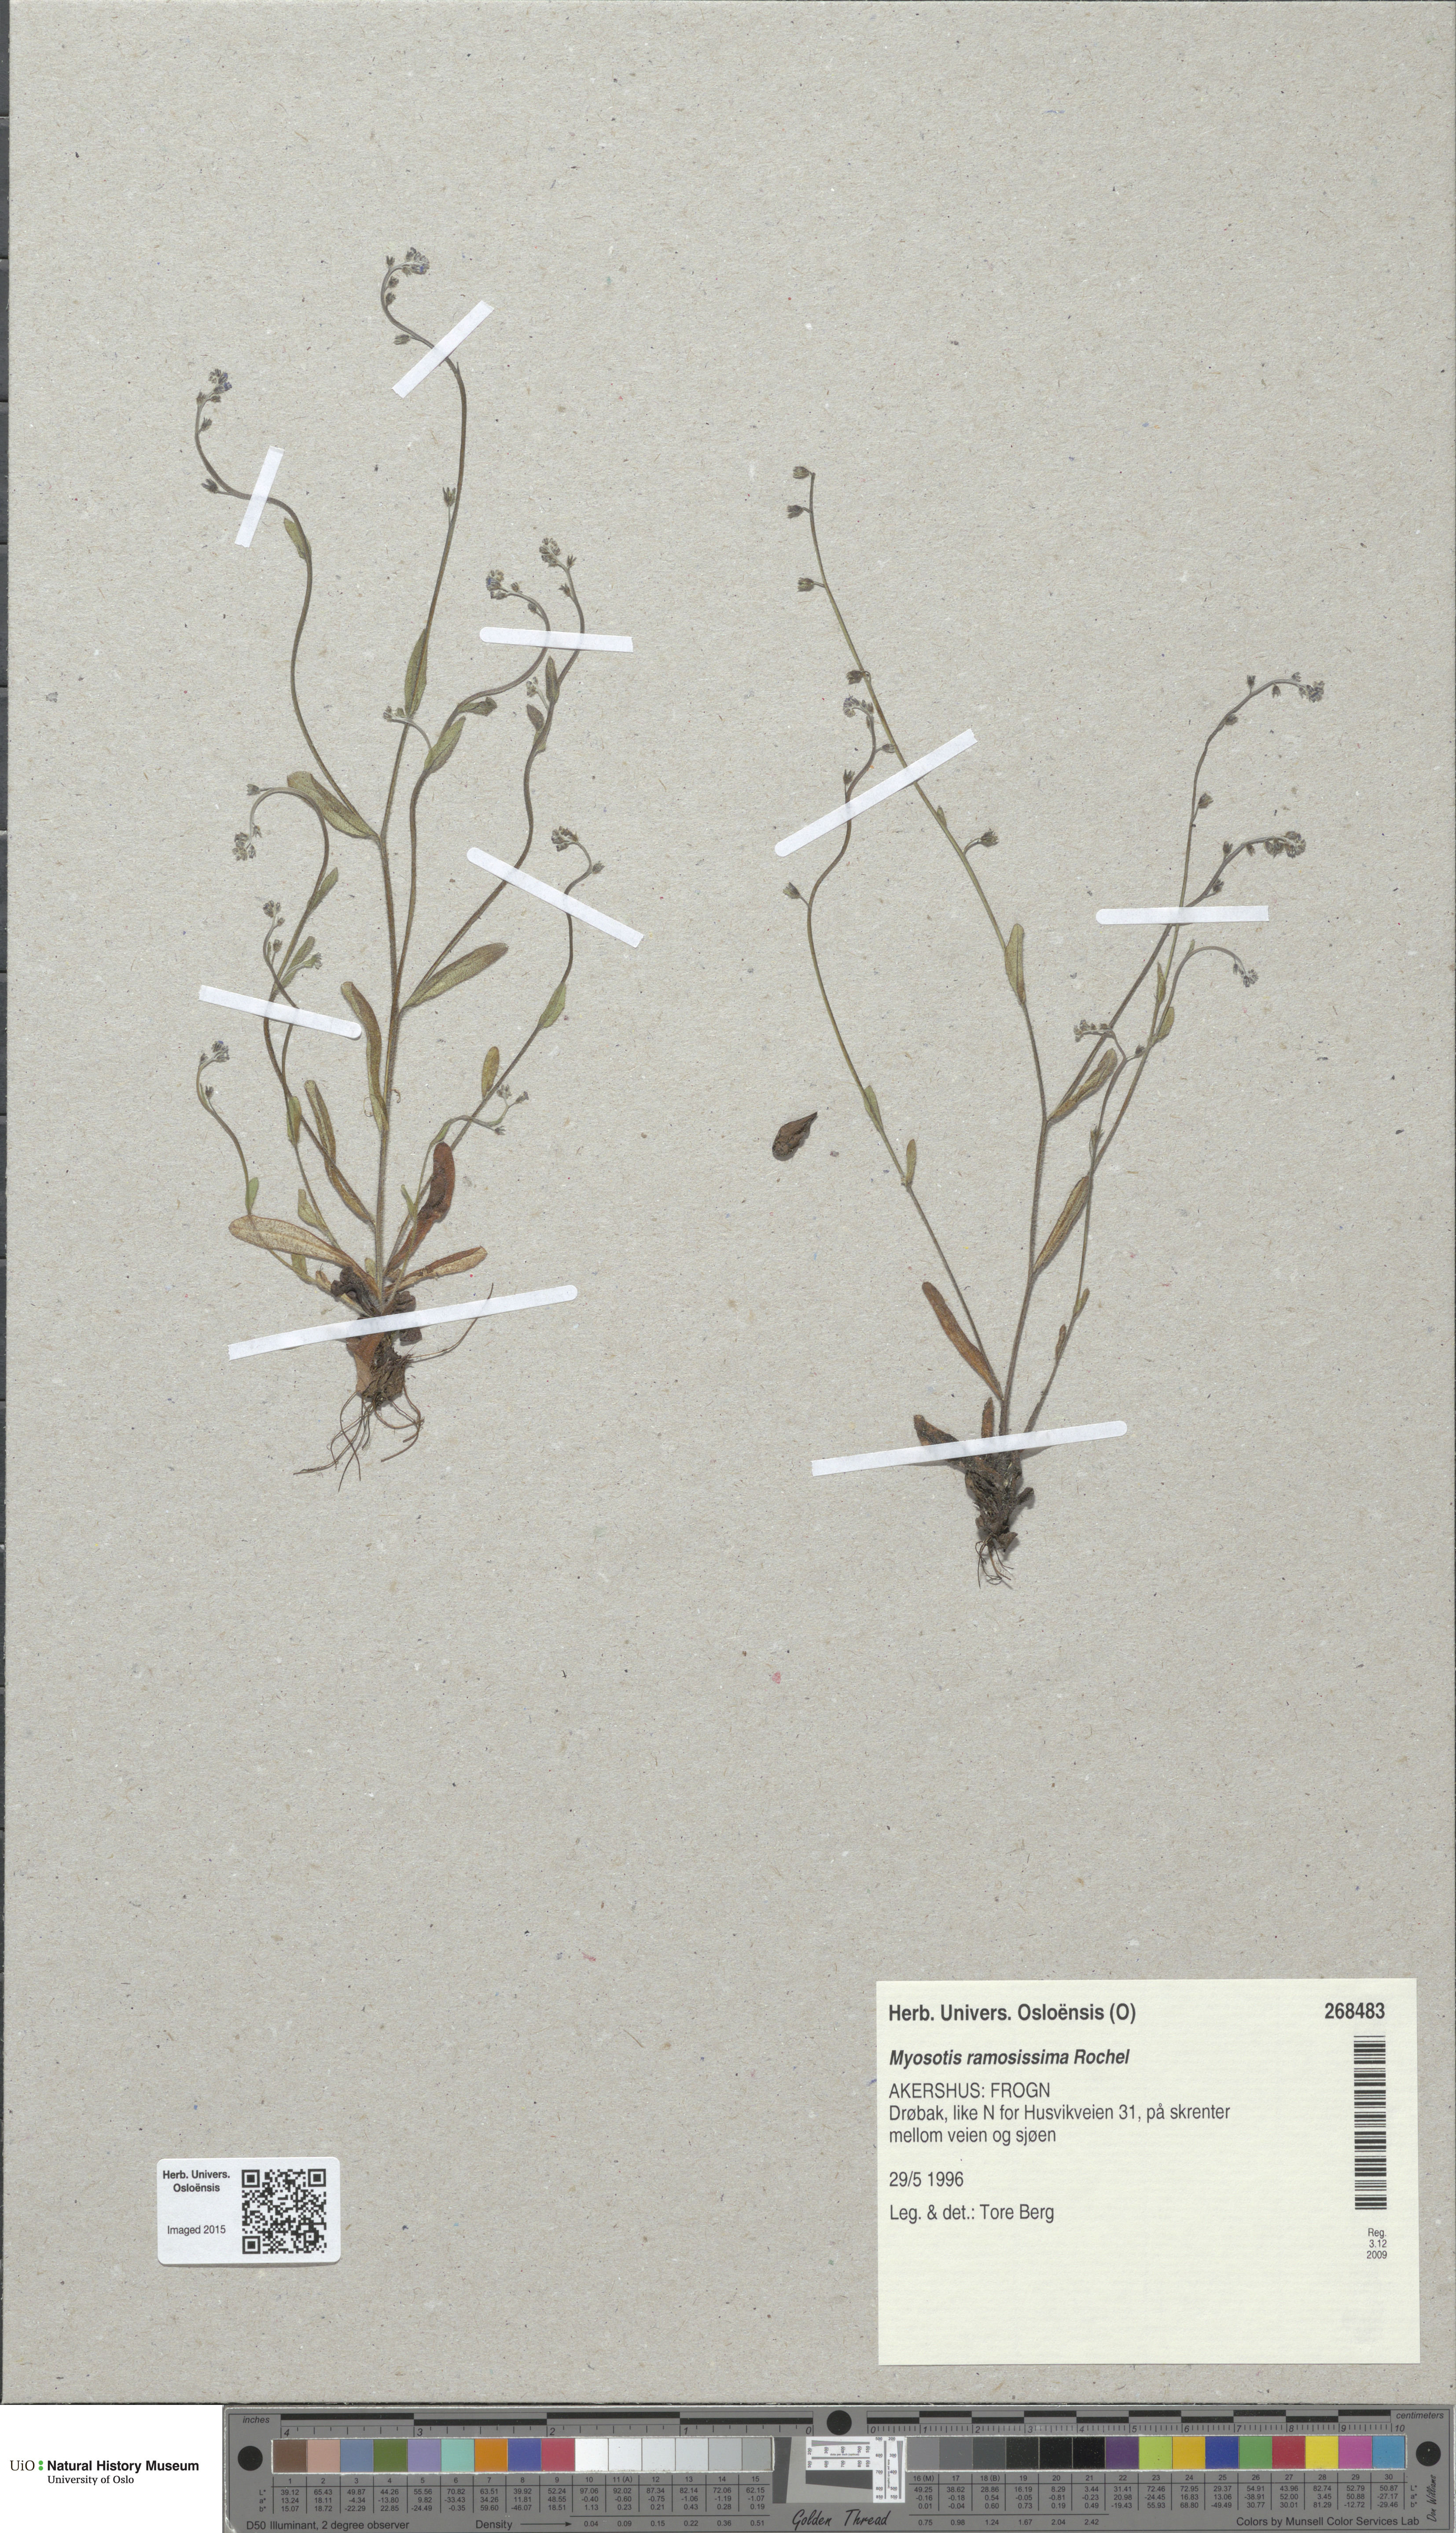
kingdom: Plantae
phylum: Tracheophyta
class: Magnoliopsida
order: Boraginales
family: Boraginaceae
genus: Myosotis
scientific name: Myosotis ramosissima
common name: Early forget-me-not
